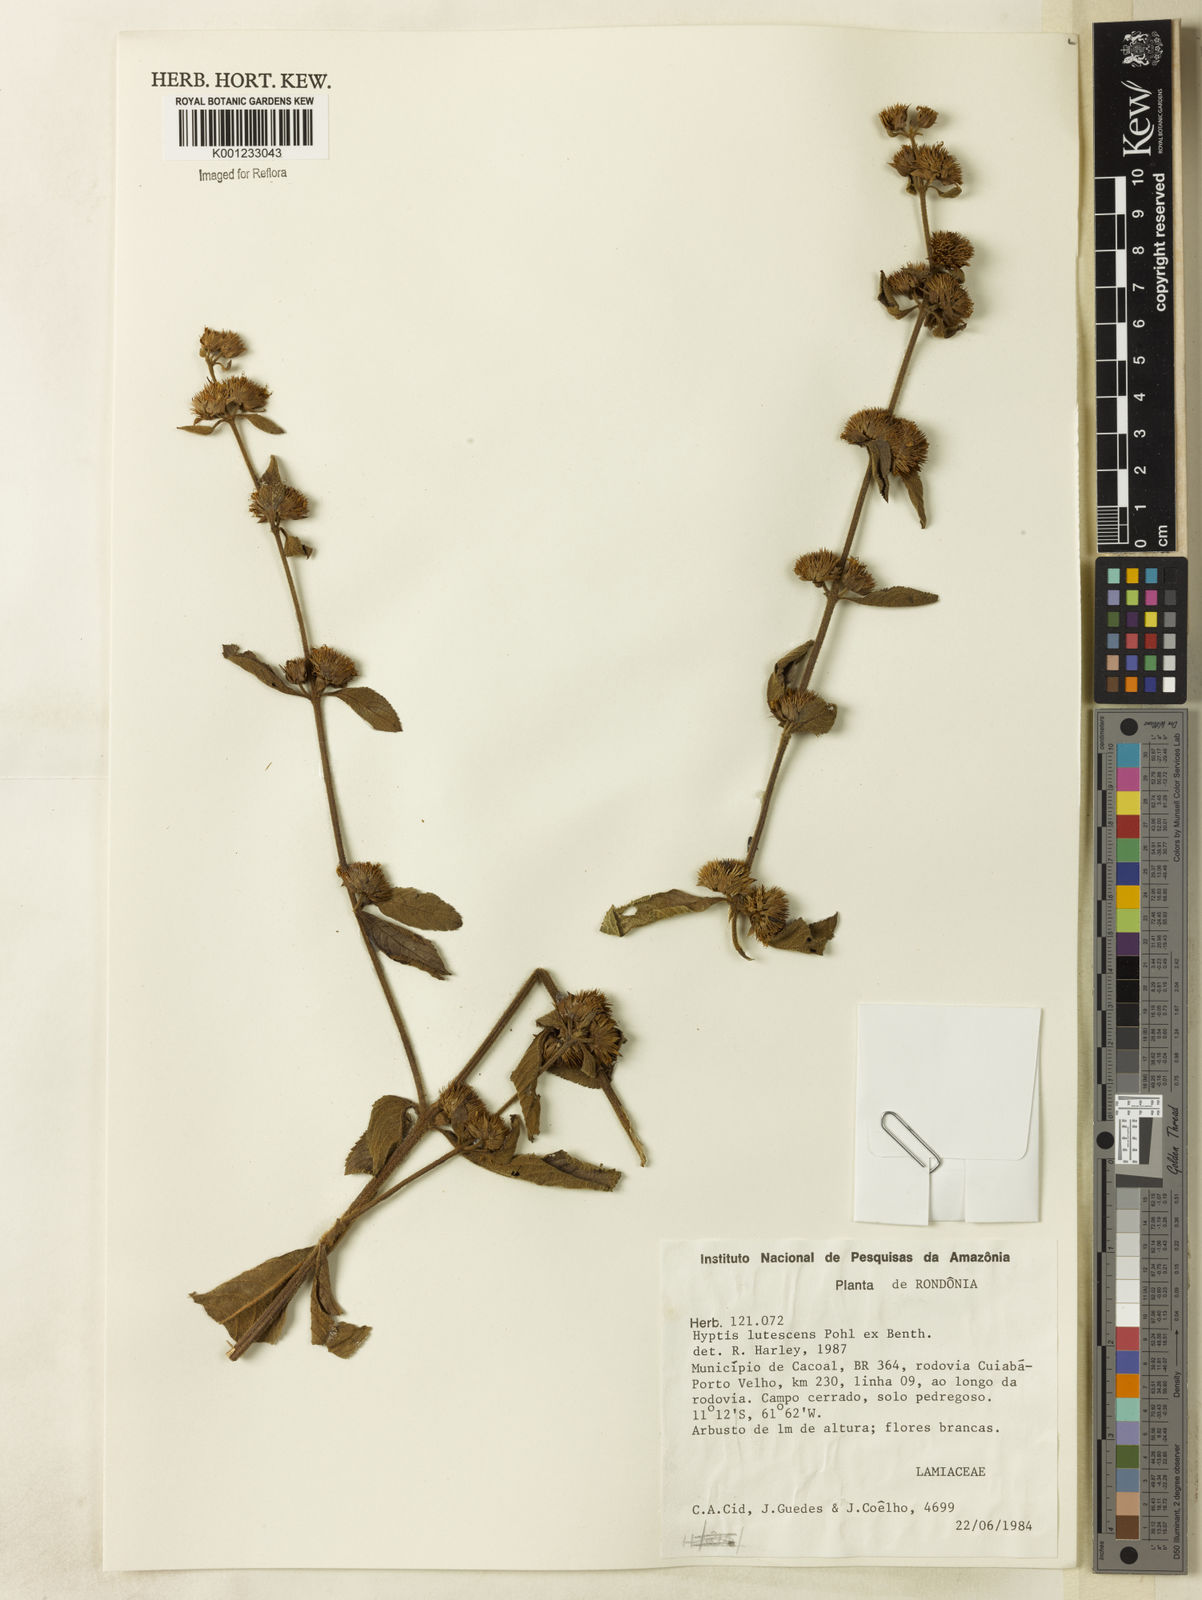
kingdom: Plantae
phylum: Tracheophyta
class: Magnoliopsida
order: Lamiales
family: Lamiaceae
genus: Hyptis
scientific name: Hyptis lutescens
